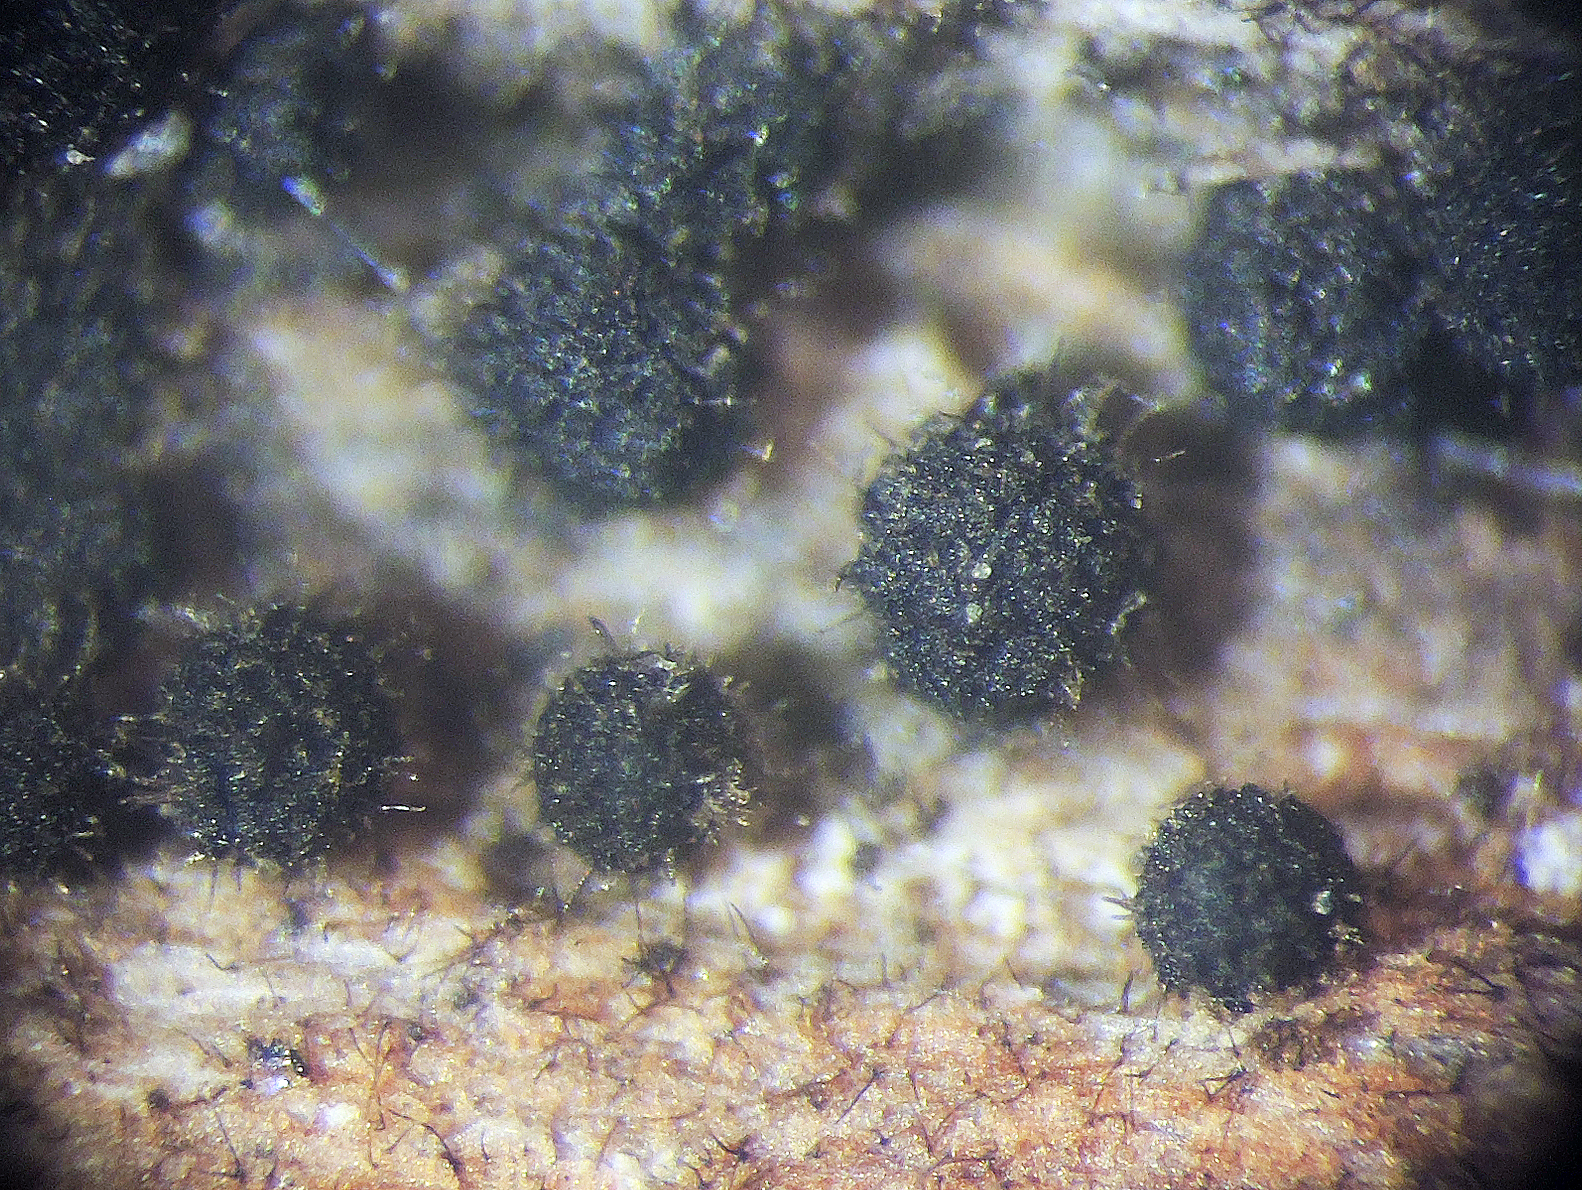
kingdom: Fungi
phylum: Ascomycota
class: Dothideomycetes
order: Dothideales
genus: Neopeckia
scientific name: Neopeckia fulcita
